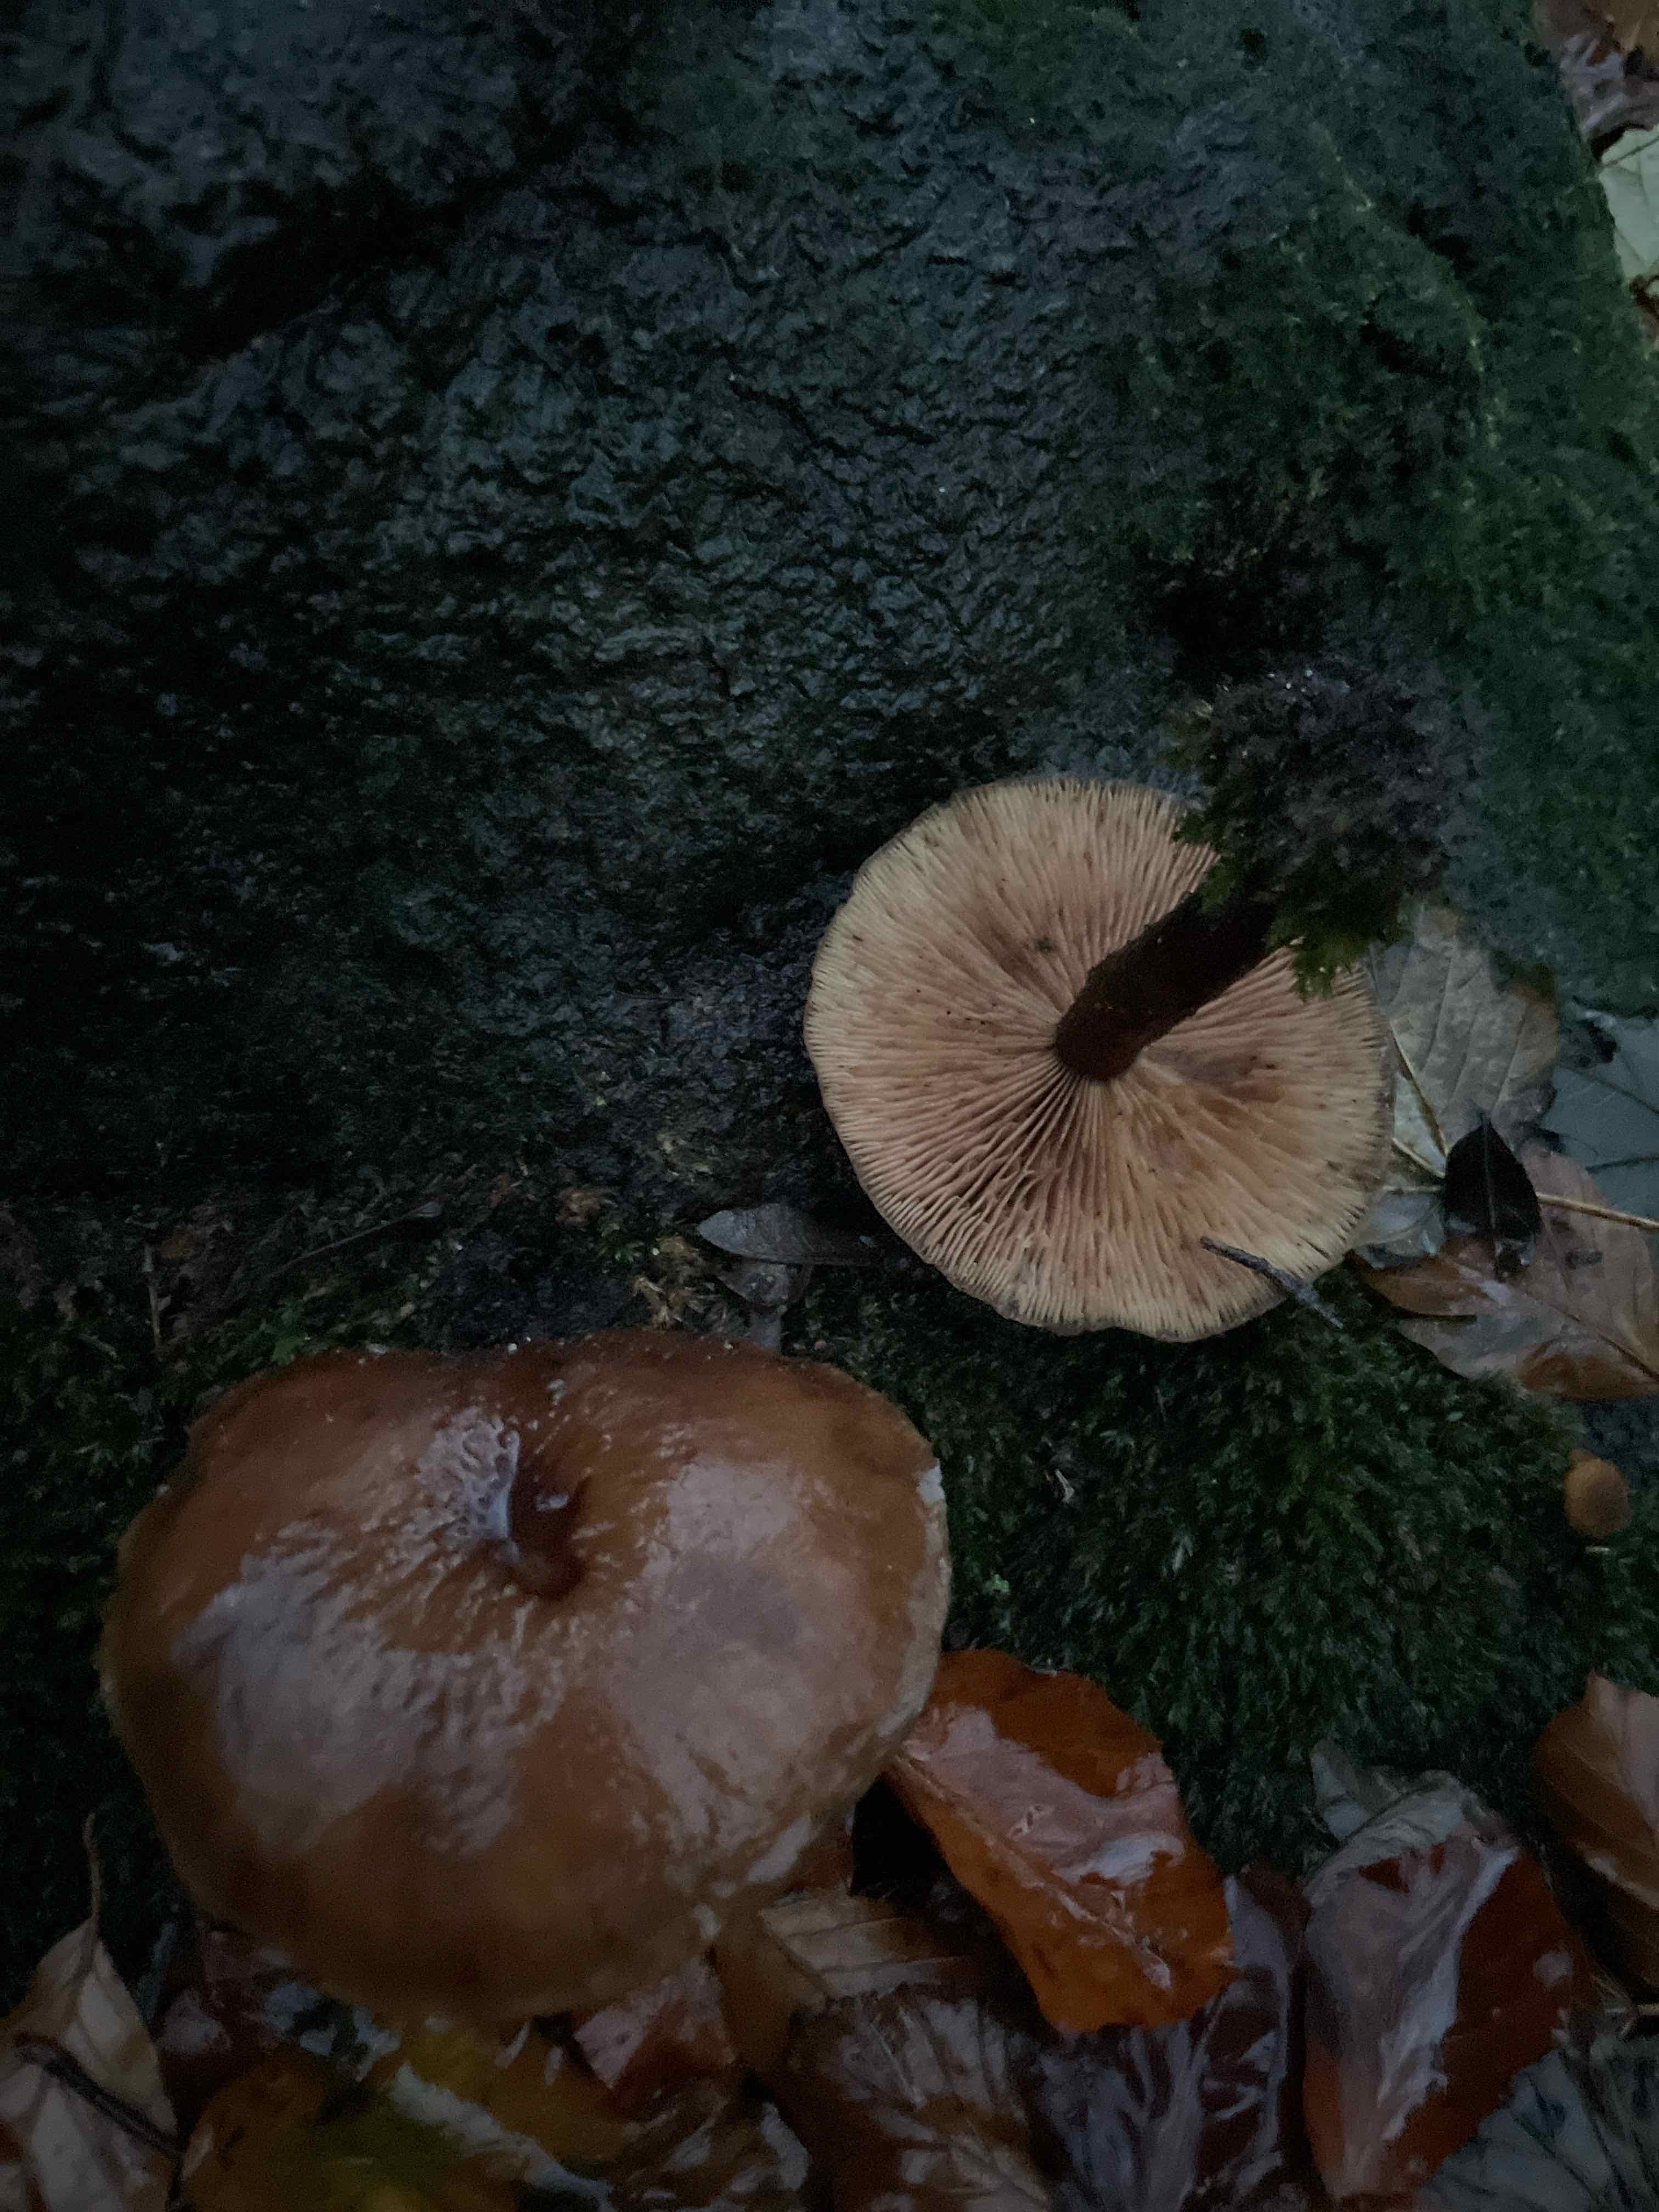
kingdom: Fungi
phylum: Basidiomycota
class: Agaricomycetes
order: Agaricales
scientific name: Agaricales
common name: champignonordenen
